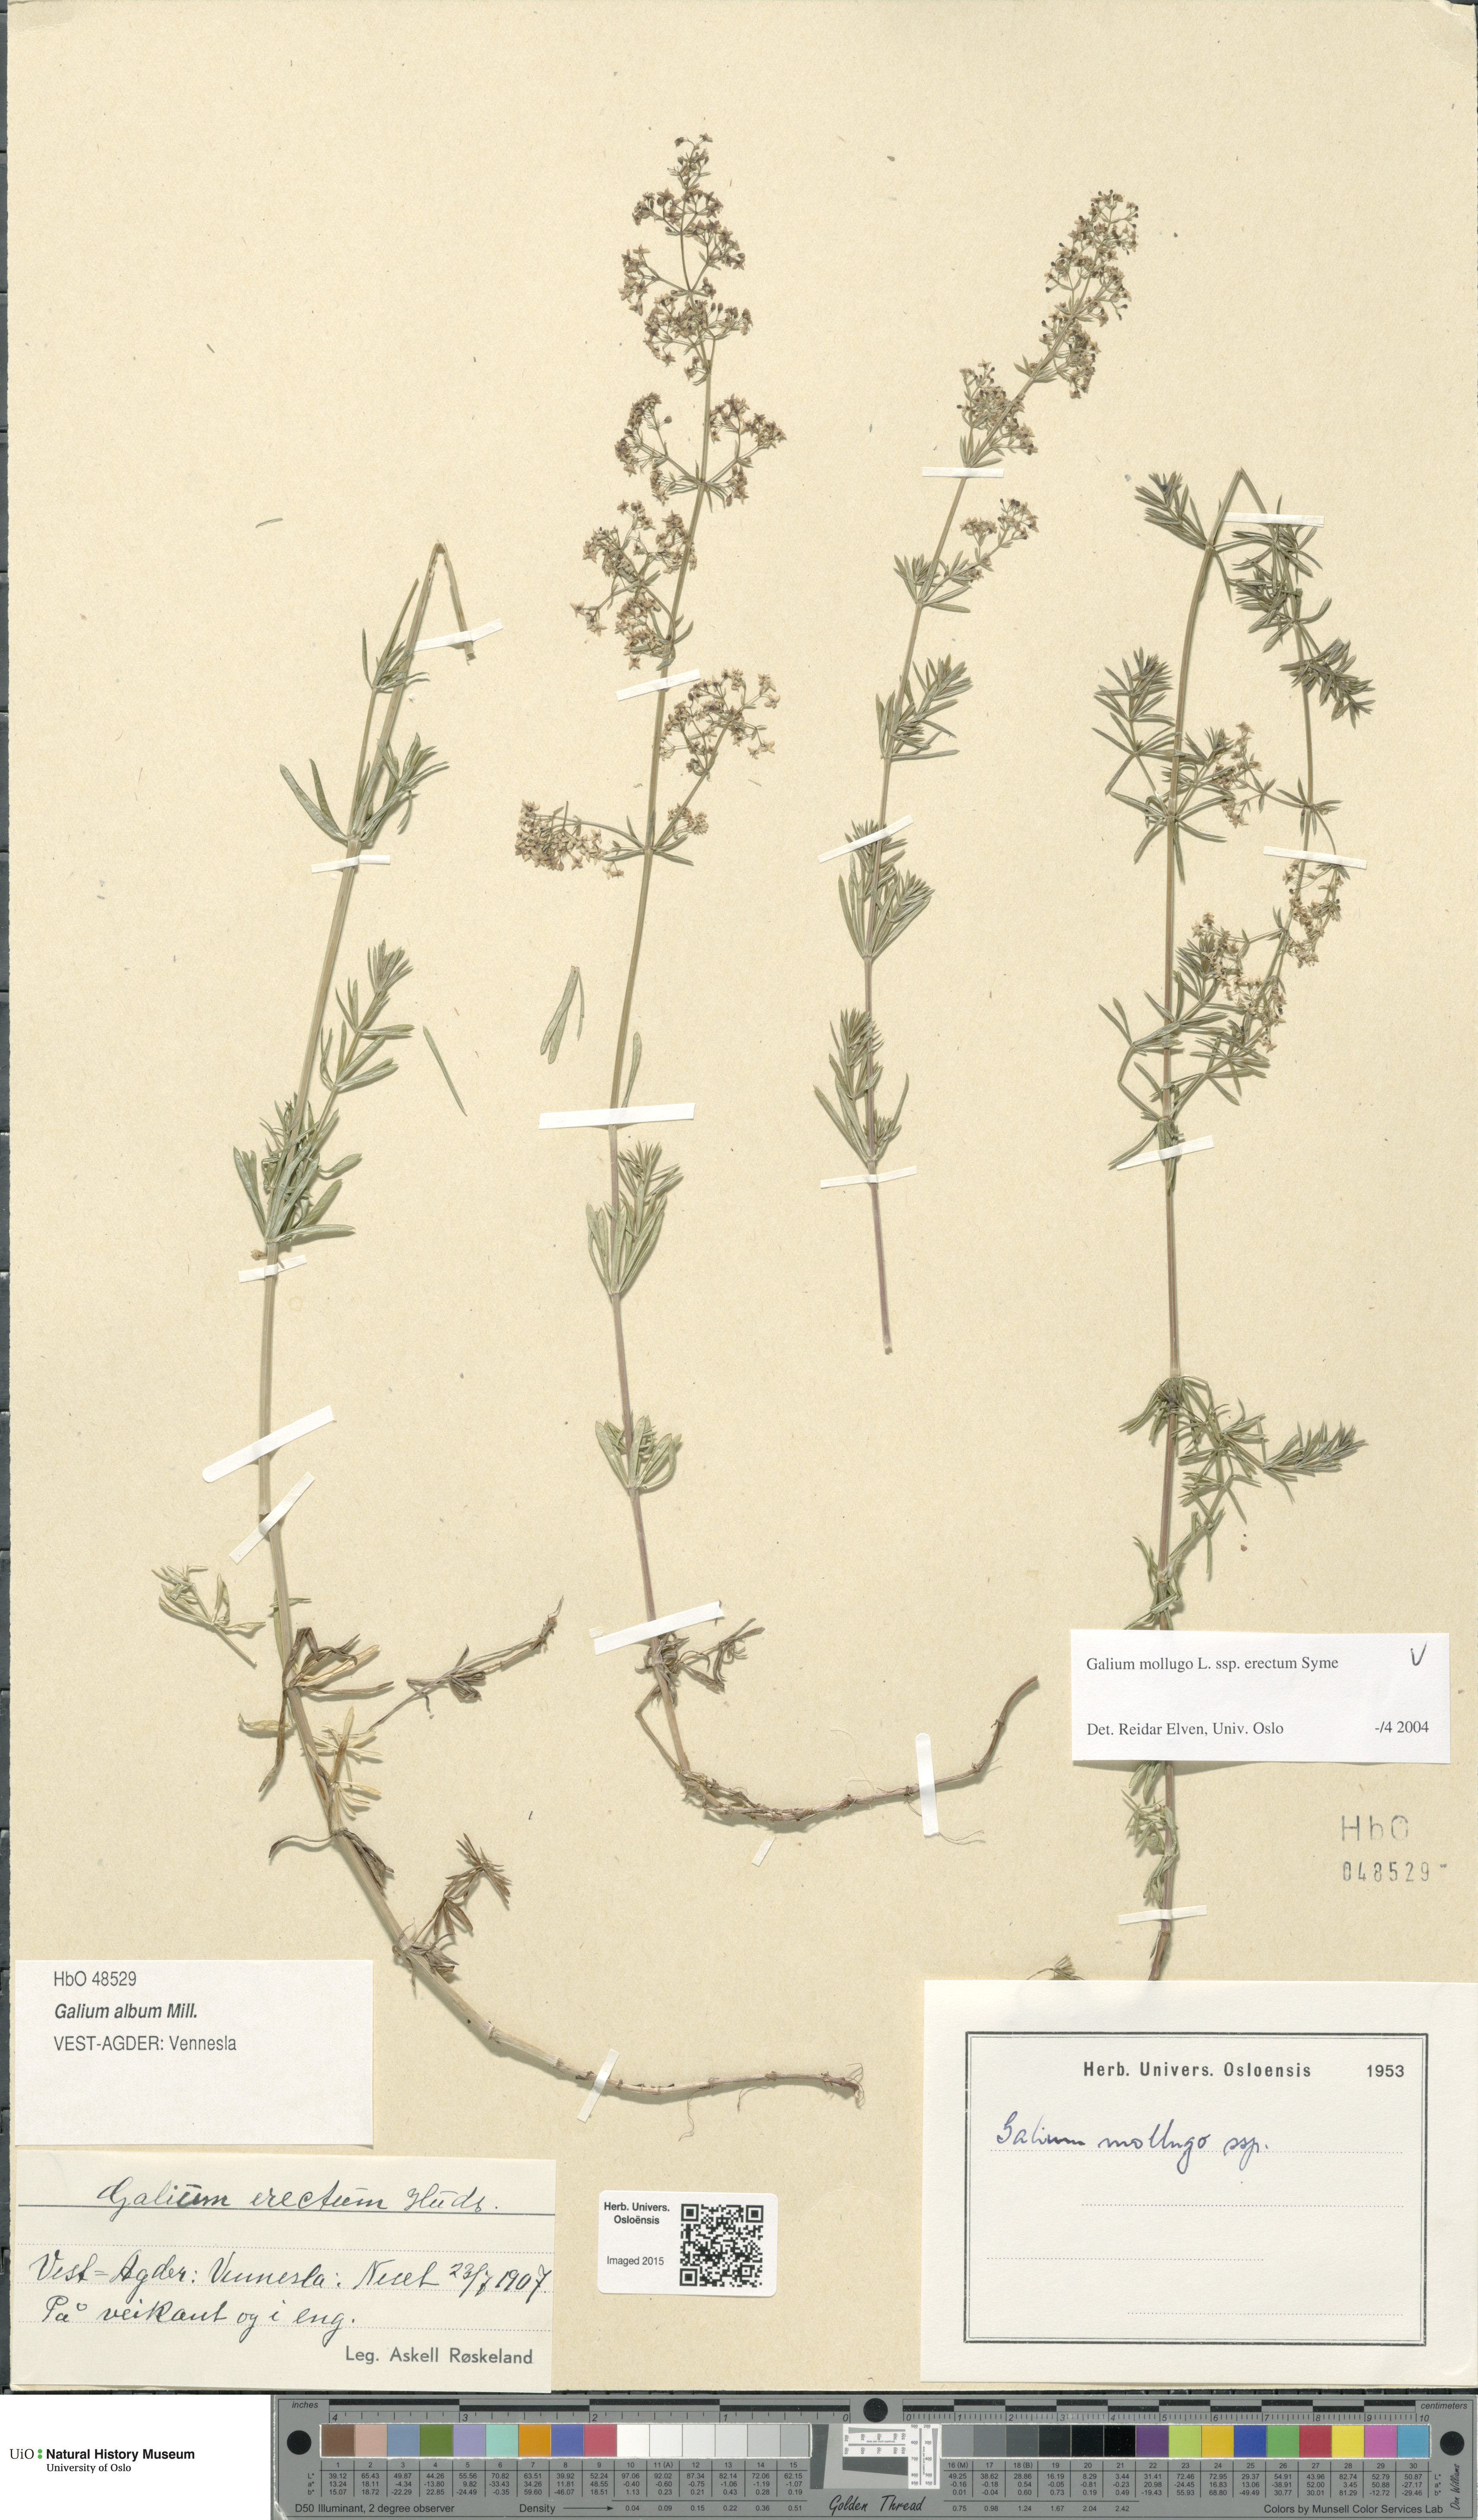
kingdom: Plantae
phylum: Tracheophyta
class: Magnoliopsida
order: Gentianales
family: Rubiaceae
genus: Galium
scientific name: Galium album
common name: White bedstraw
